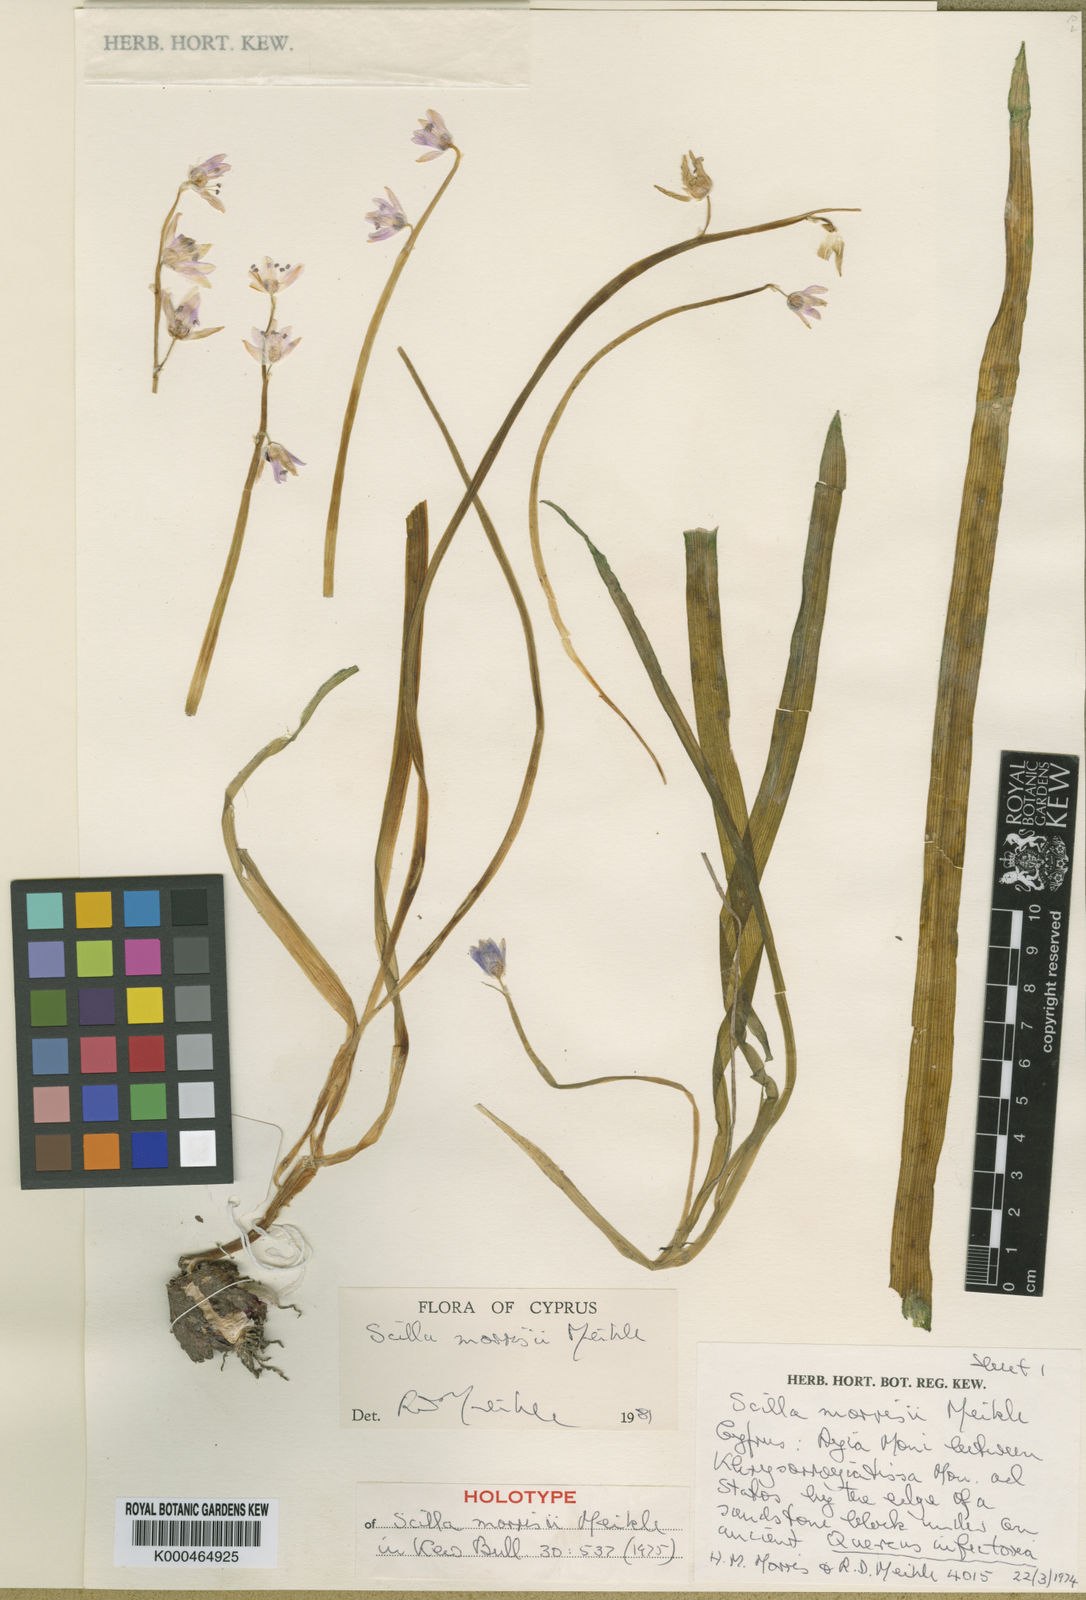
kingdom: Plantae
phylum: Tracheophyta
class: Liliopsida
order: Asparagales
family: Asparagaceae
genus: Scilla
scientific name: Scilla morrisii
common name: Morris squill
